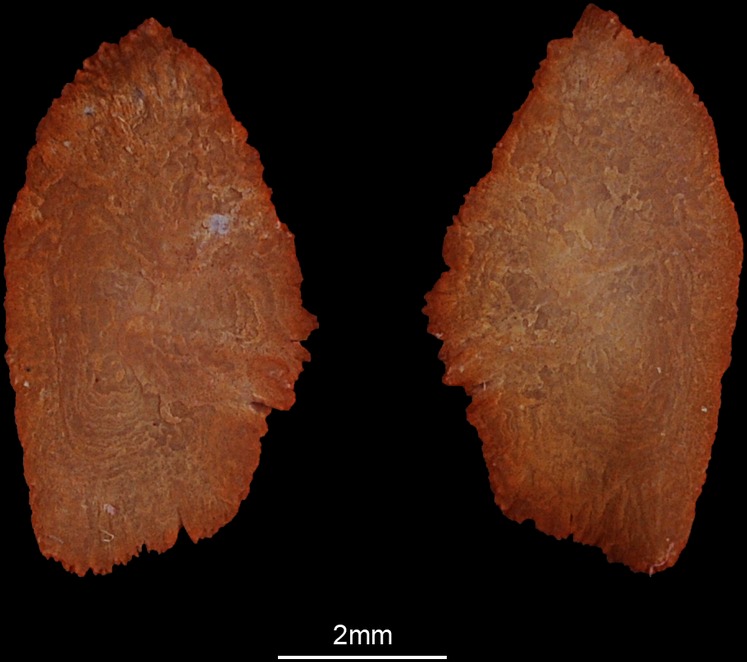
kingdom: Animalia
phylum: Chordata
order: Perciformes
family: Sparidae
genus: Rhabdosargus
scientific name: Rhabdosargus sarba
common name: Goldlined seabream
